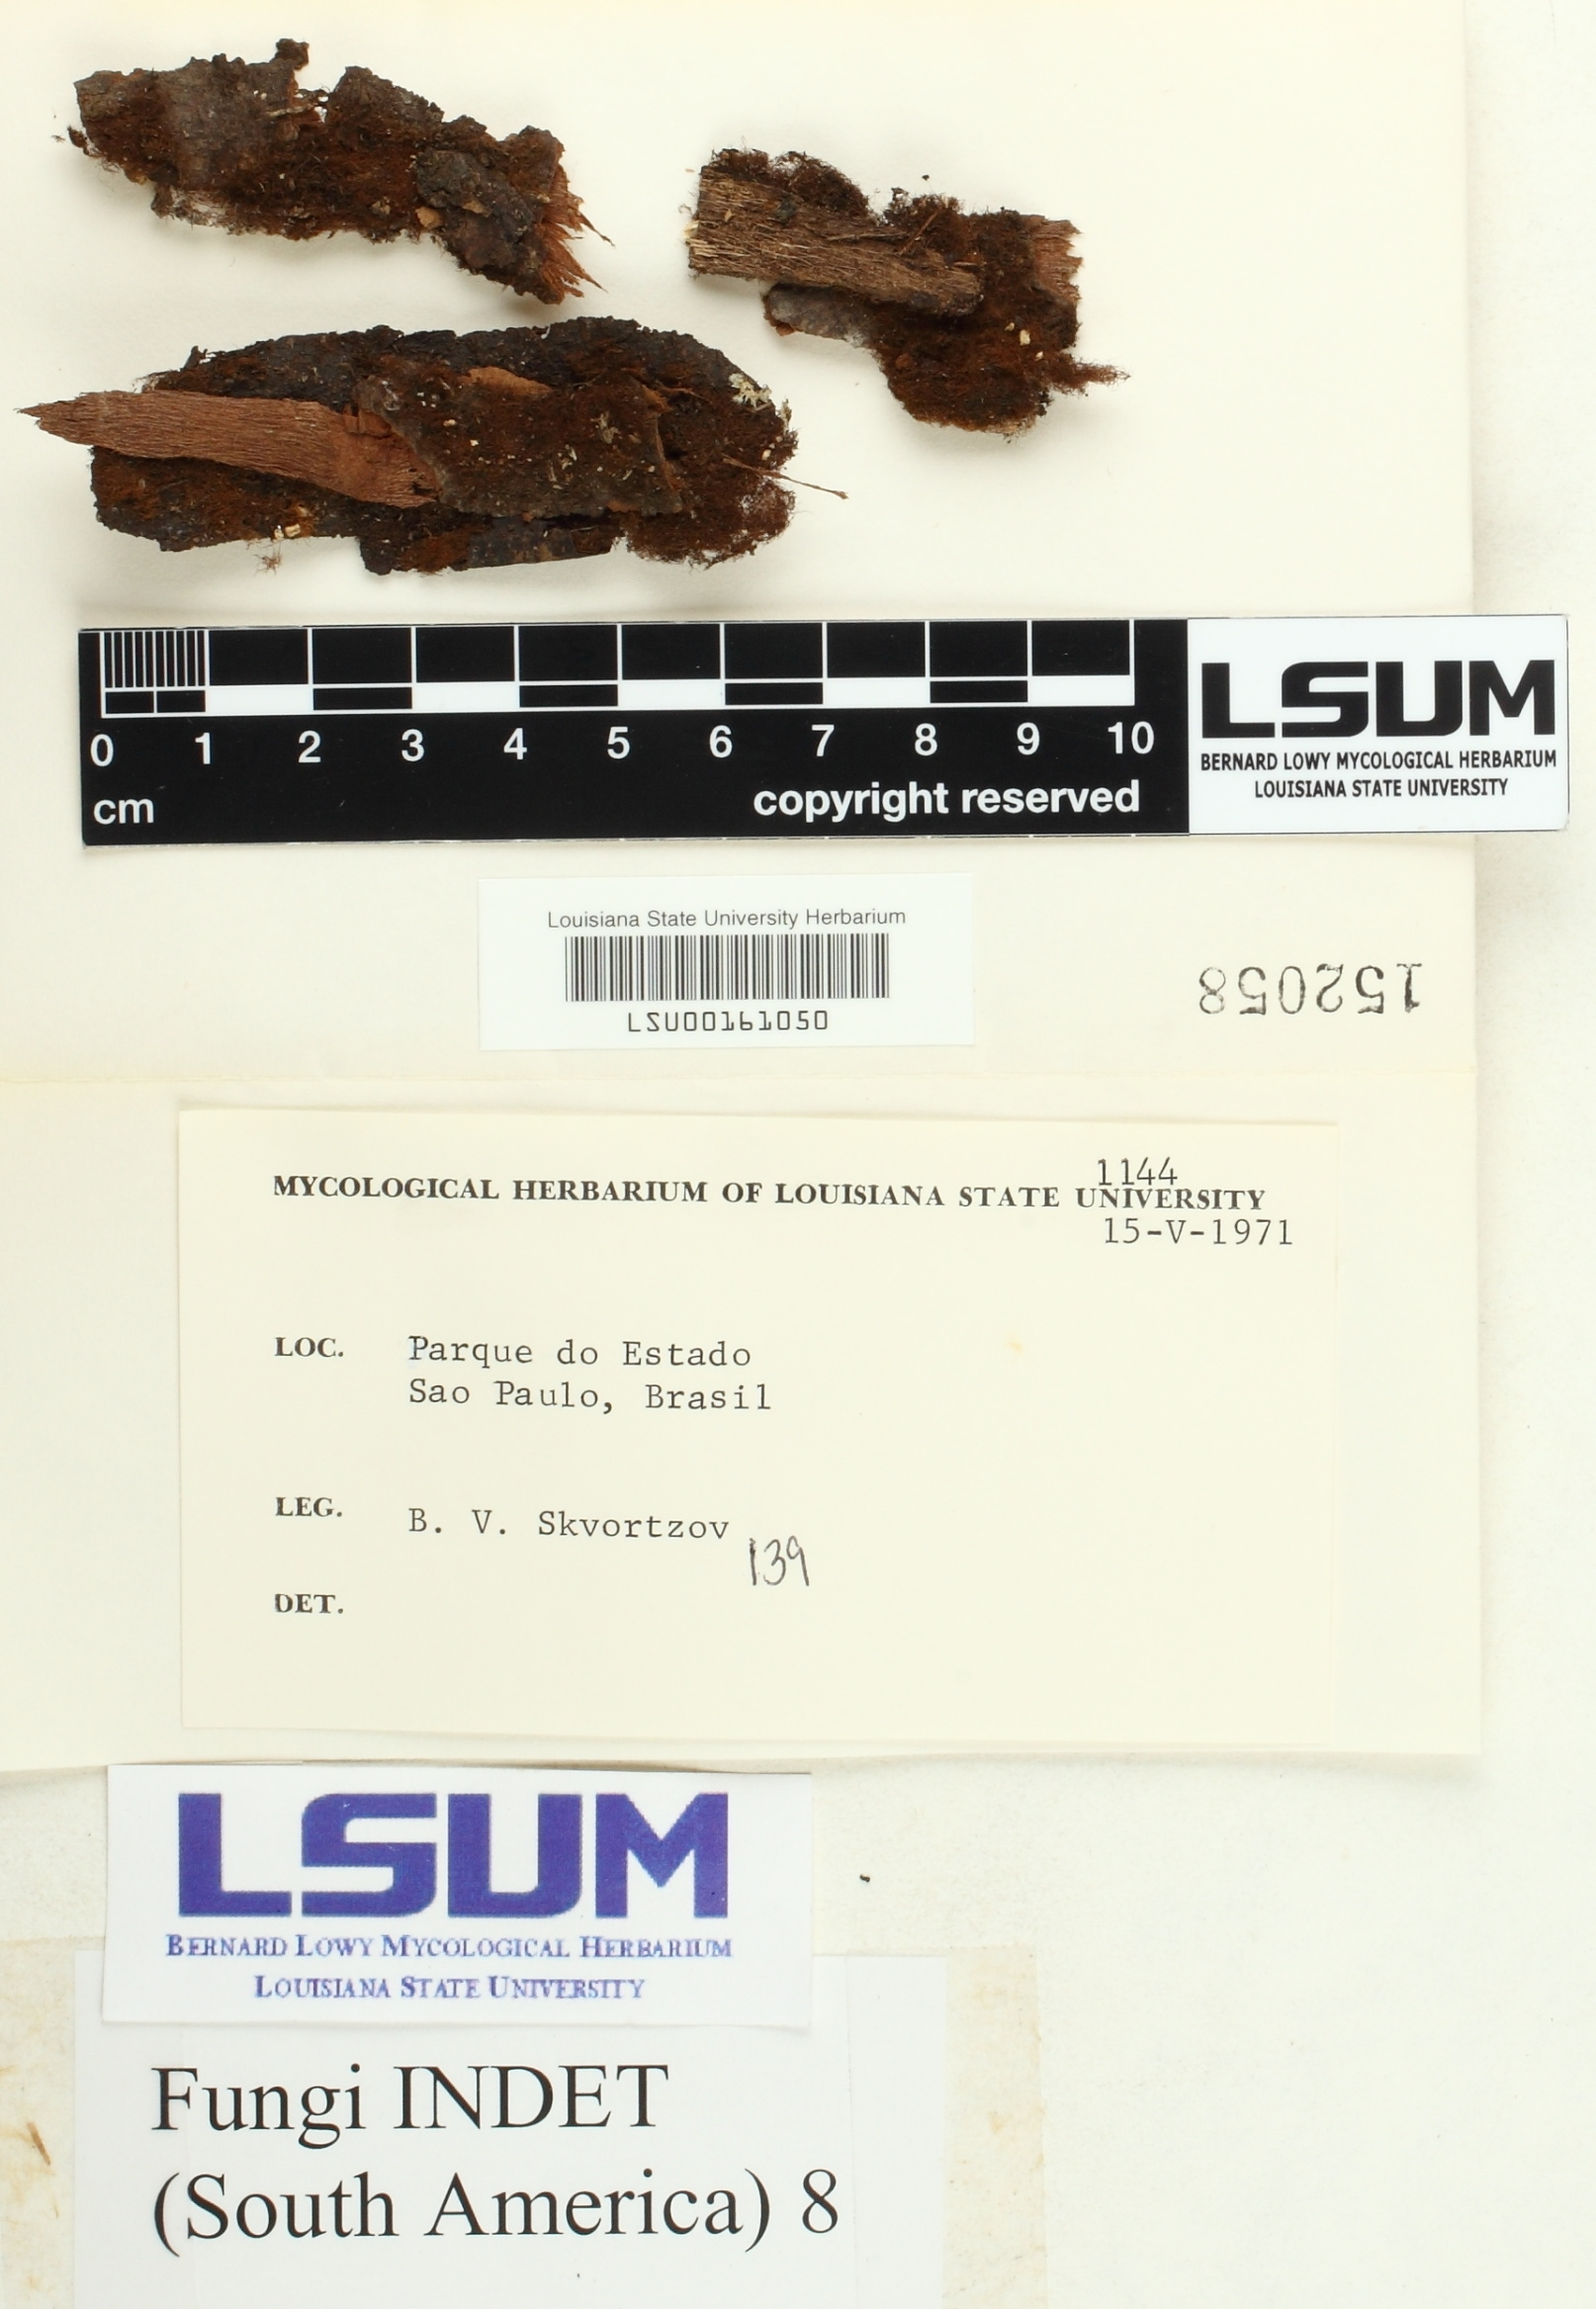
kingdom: Fungi
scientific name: Fungi
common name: Fungi
